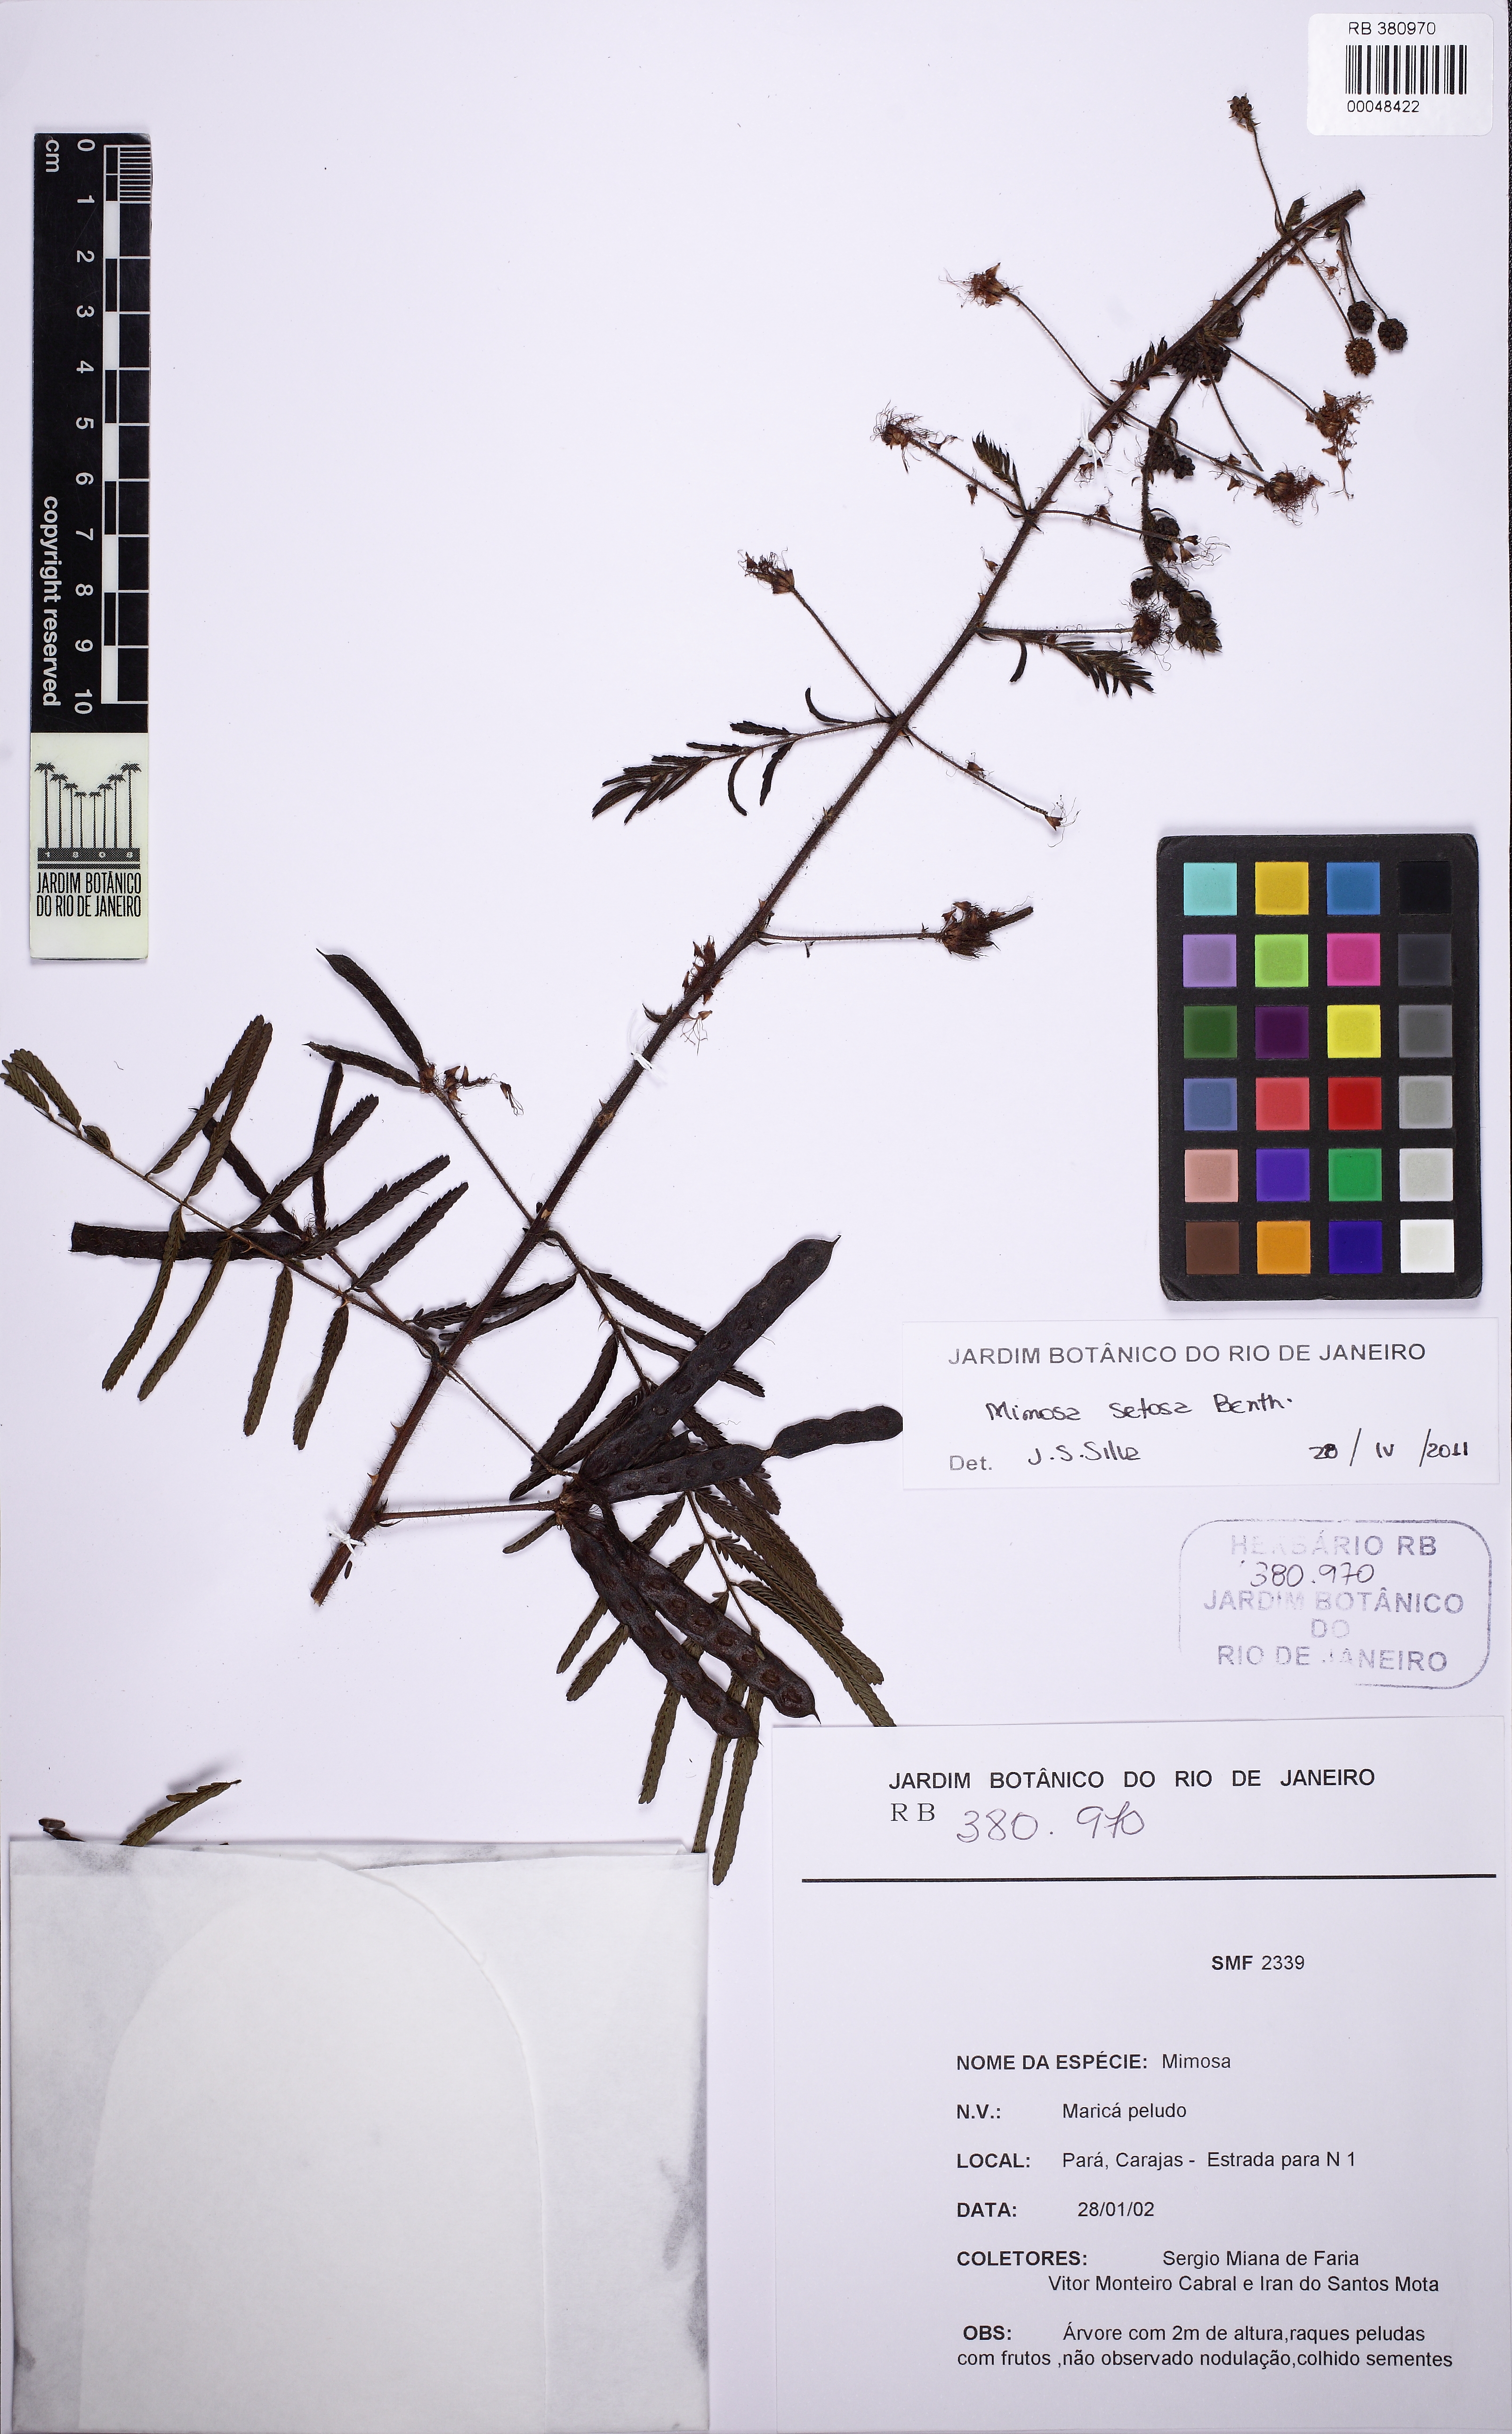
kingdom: Plantae
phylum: Tracheophyta
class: Magnoliopsida
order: Fabales
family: Fabaceae
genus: Mimosa
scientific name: Mimosa paludosa
